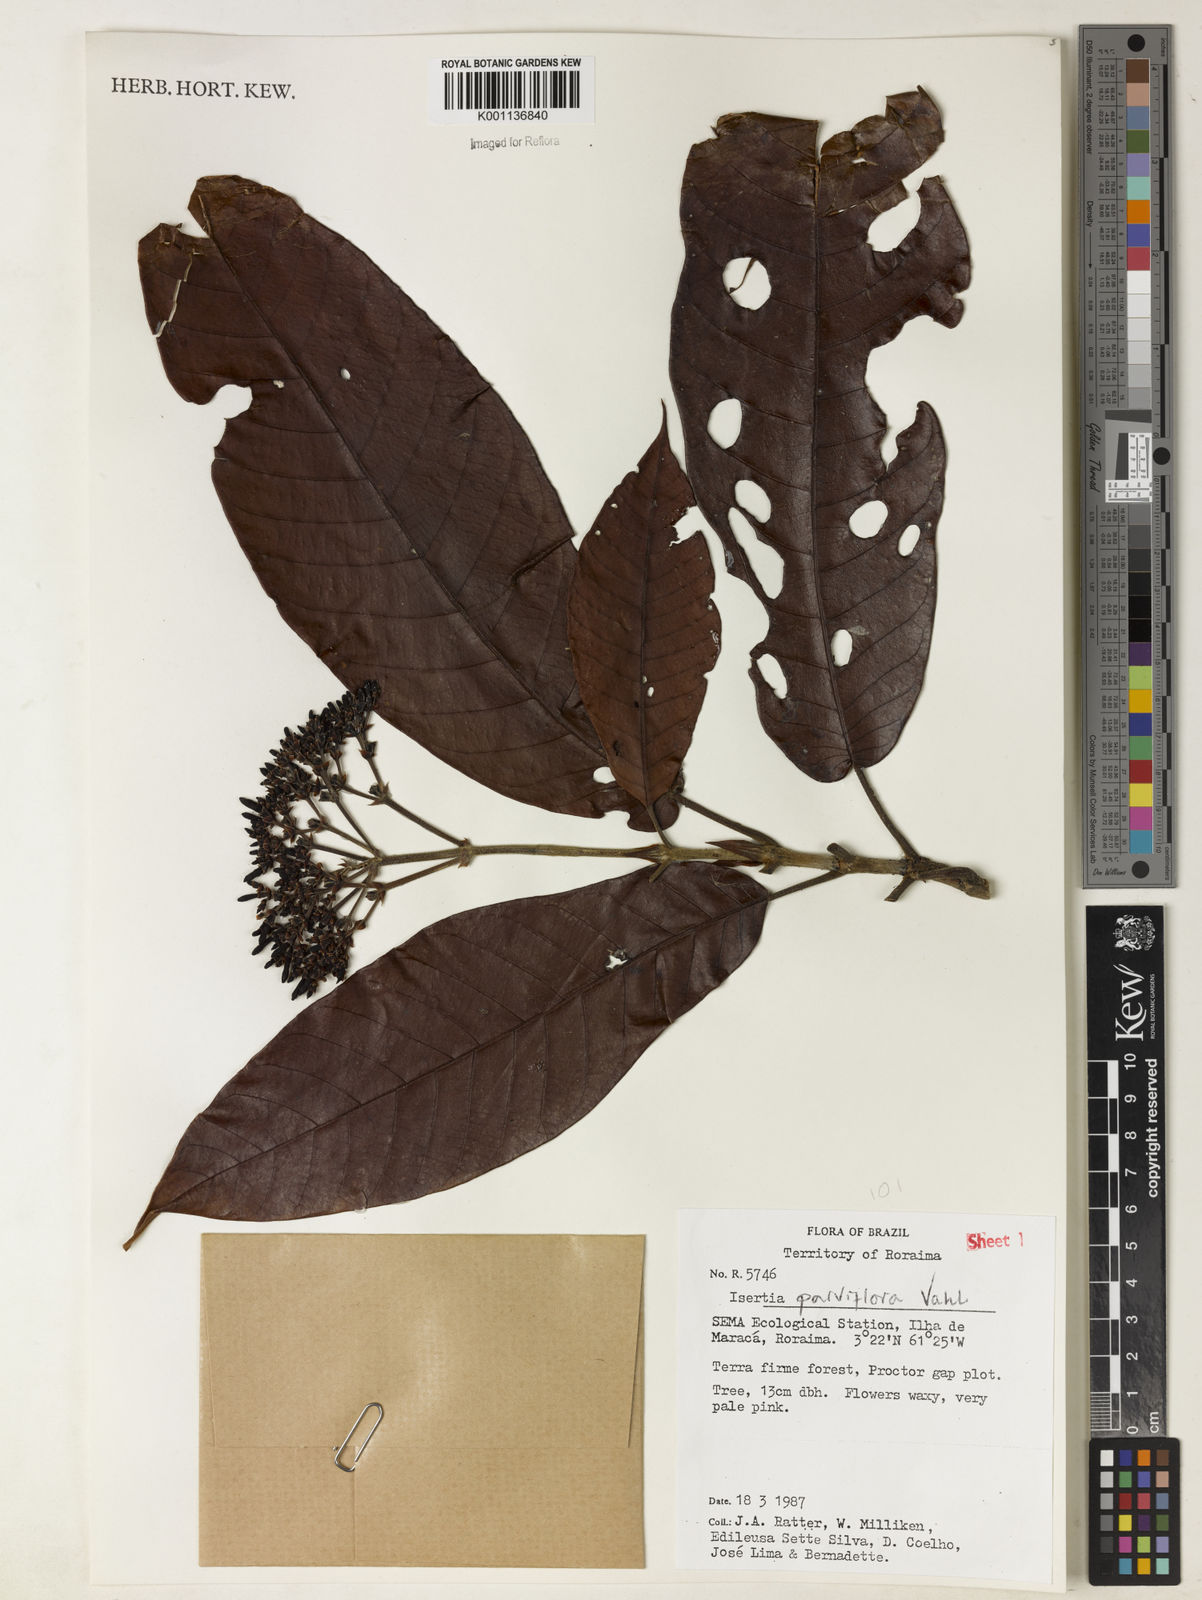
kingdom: Plantae
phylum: Tracheophyta
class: Magnoliopsida
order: Gentianales
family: Rubiaceae
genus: Isertia
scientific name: Isertia parviflora
